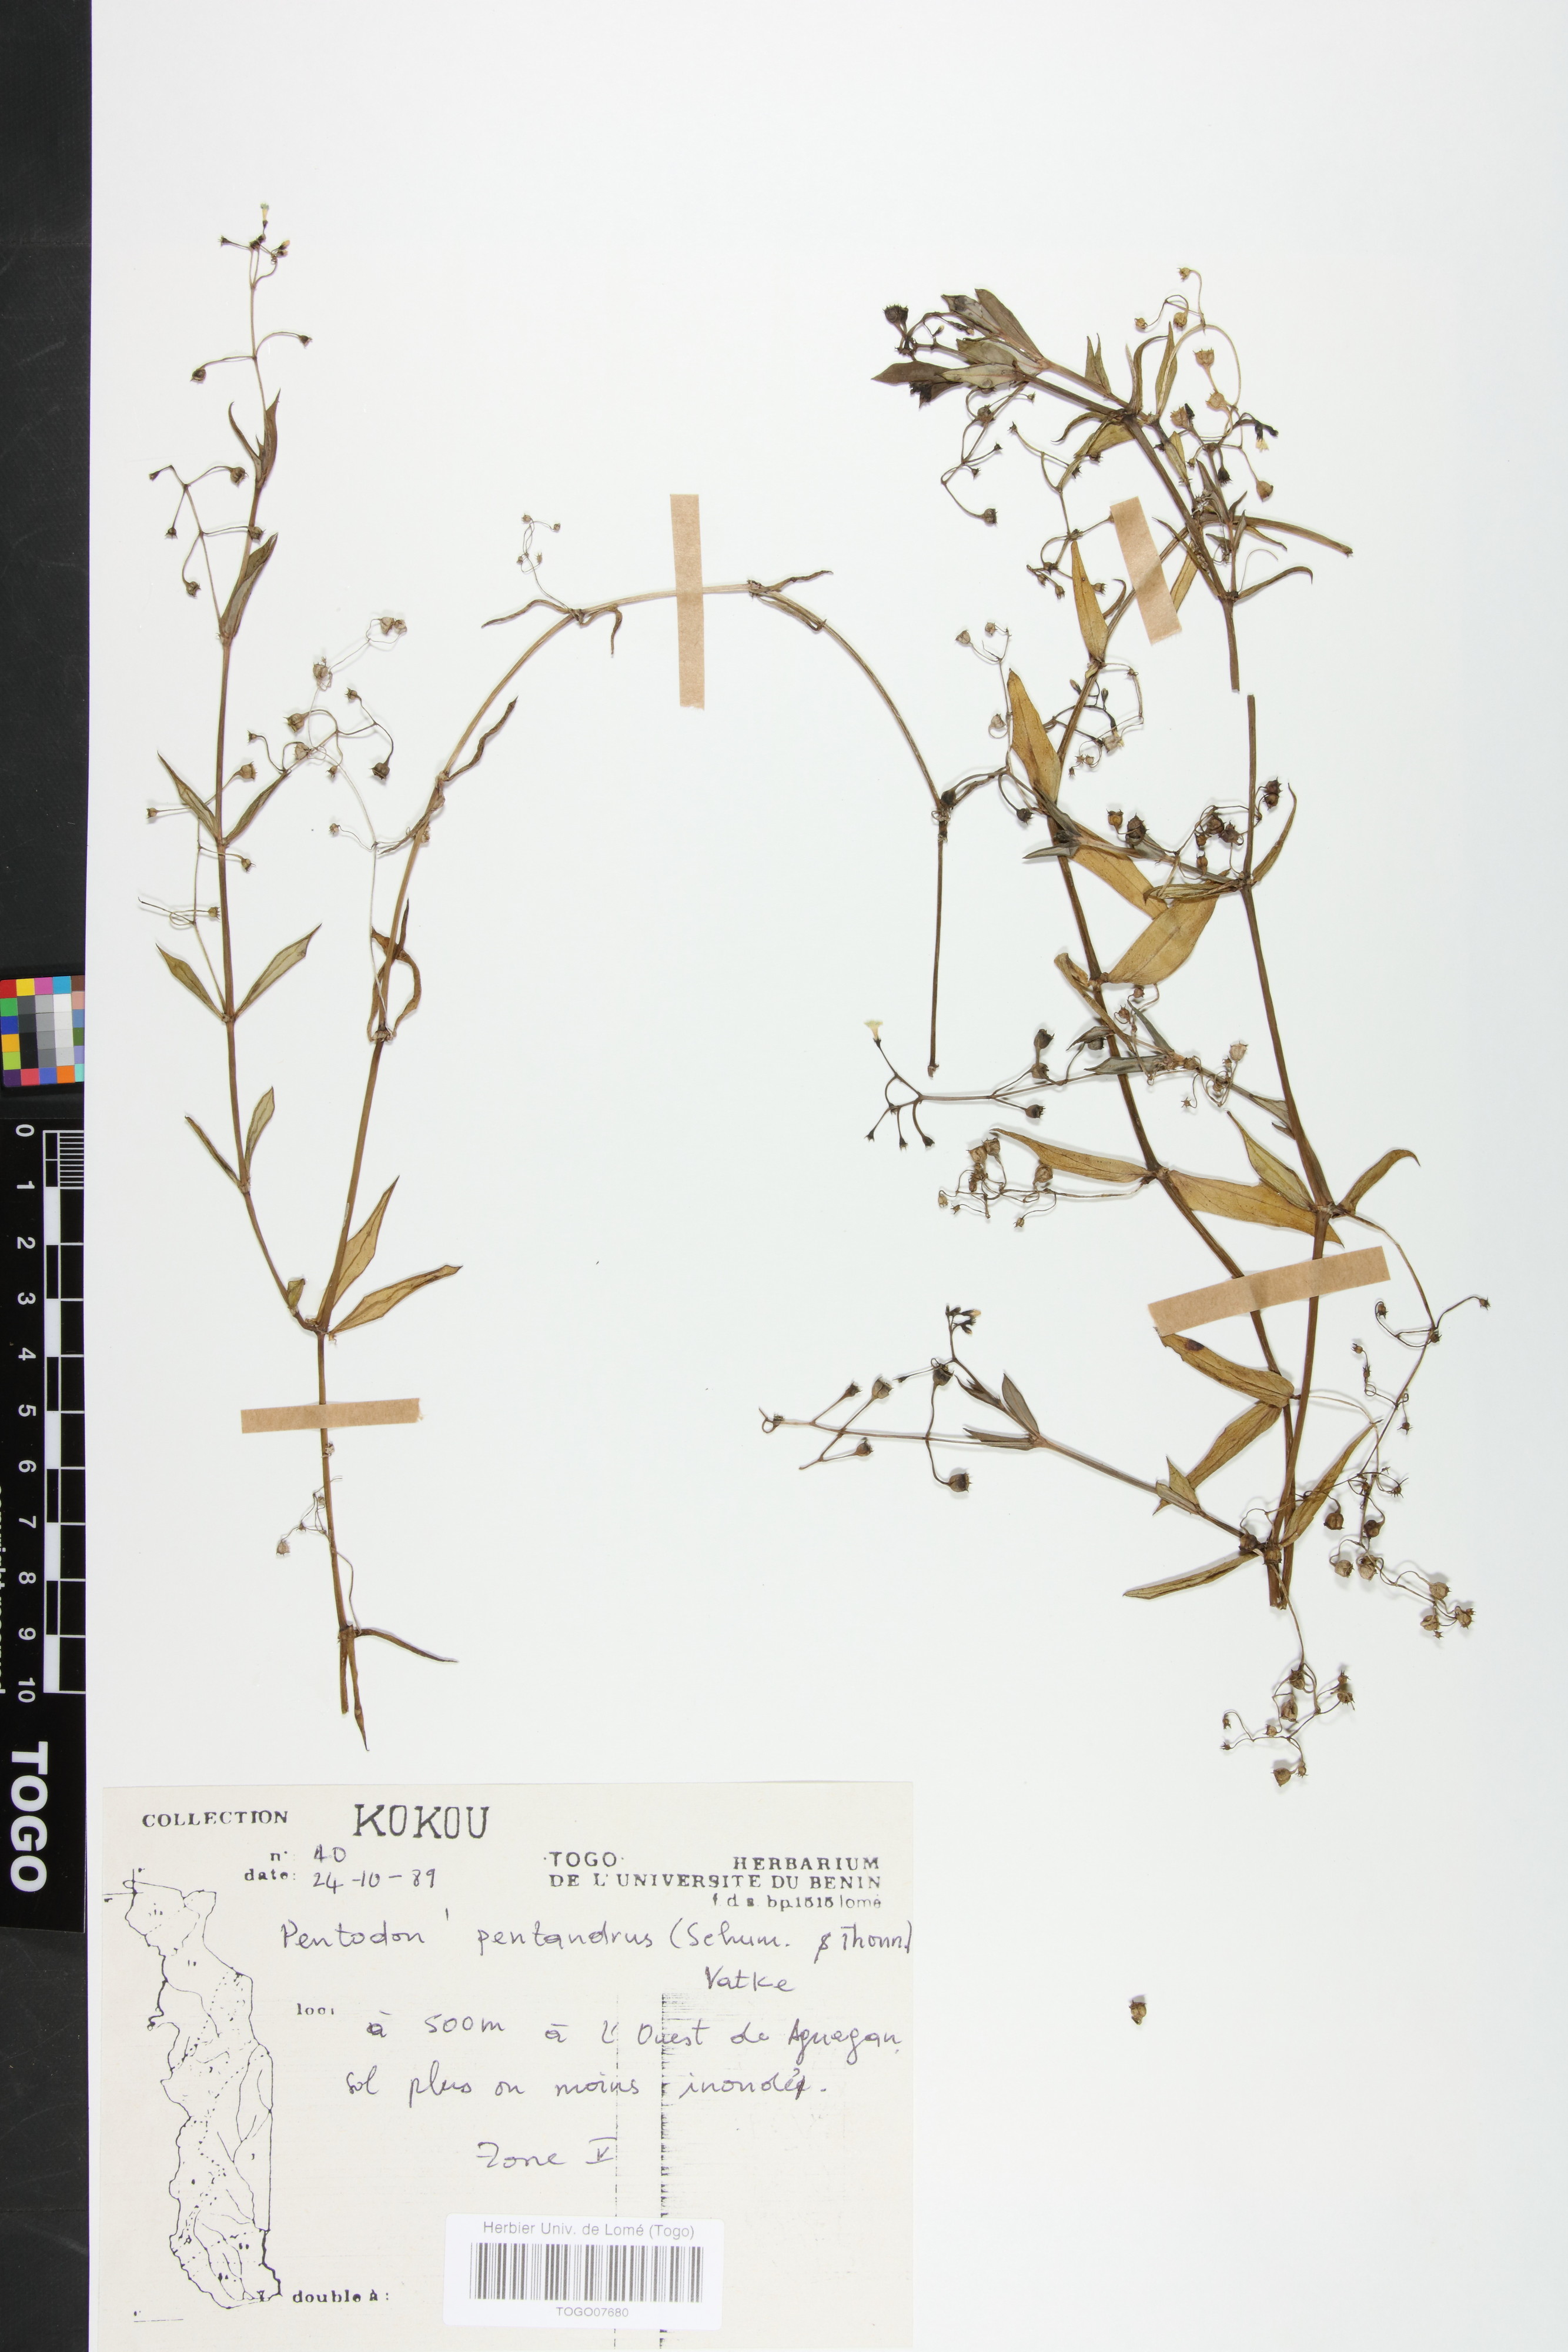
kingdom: Plantae
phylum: Tracheophyta
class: Magnoliopsida
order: Gentianales
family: Rubiaceae
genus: Pentodon
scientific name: Pentodon pentandrus
